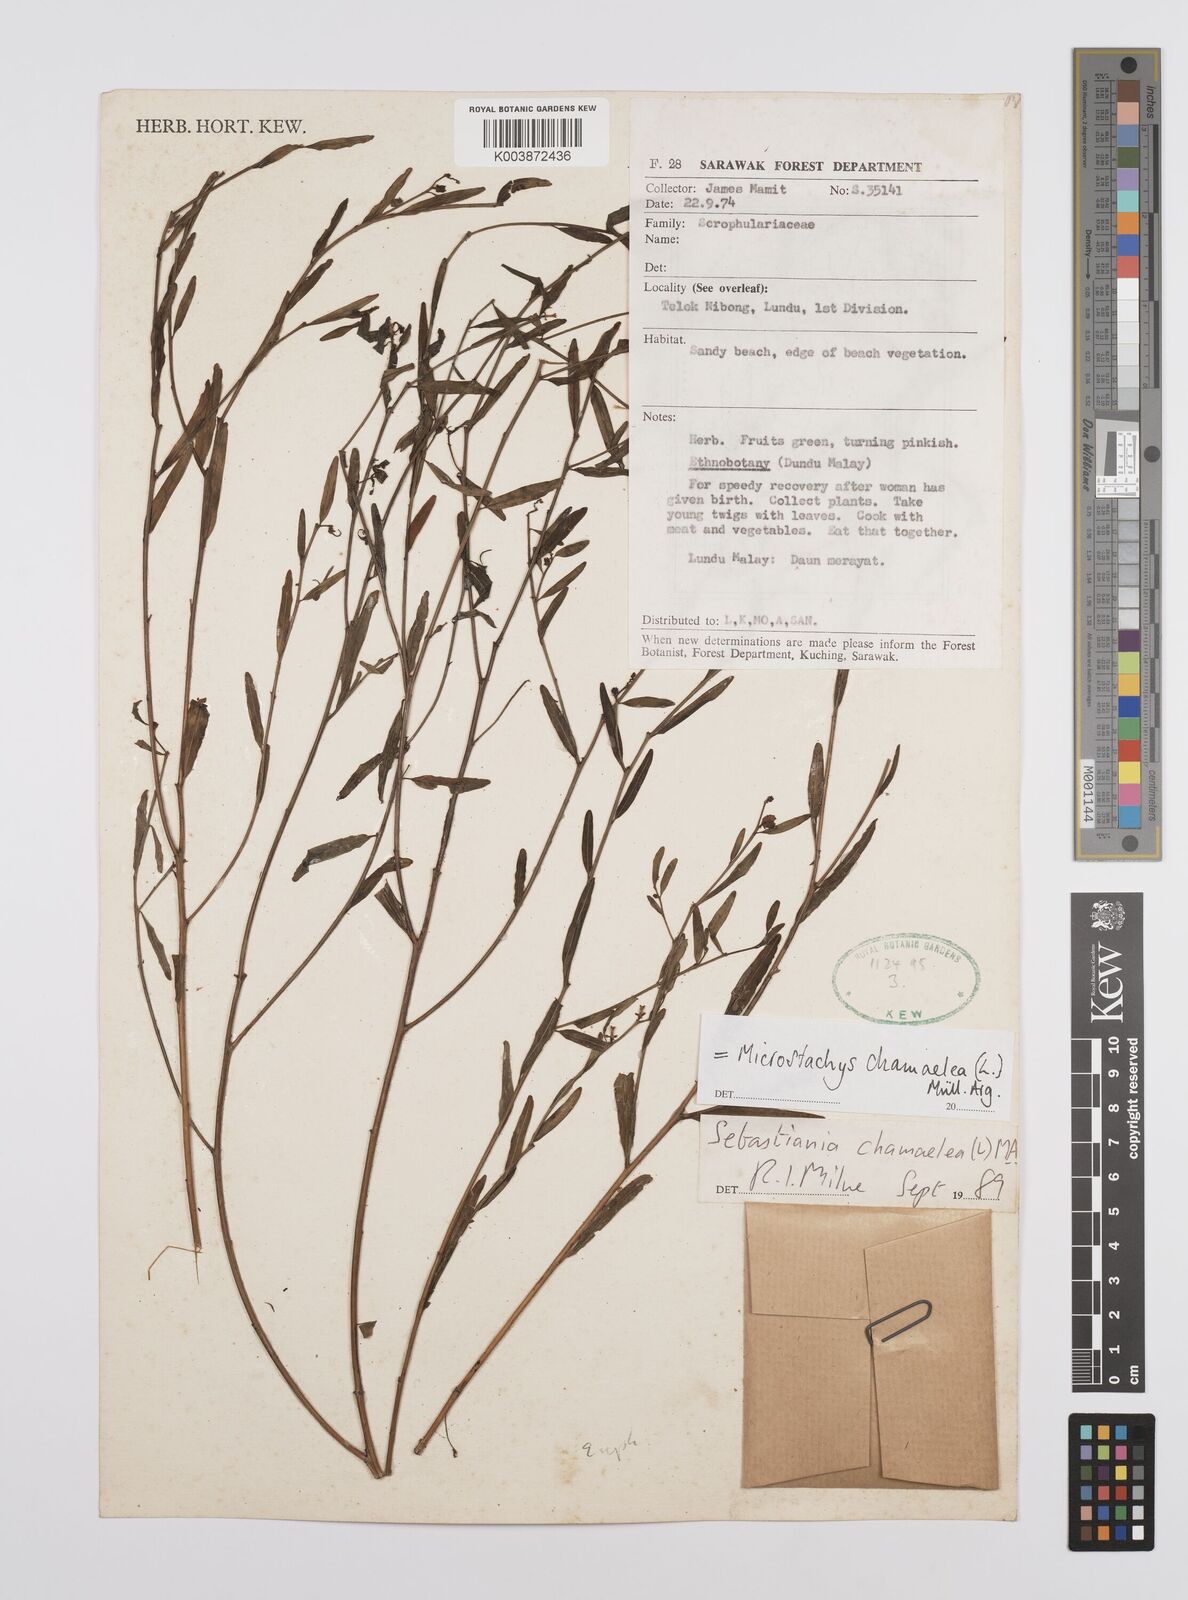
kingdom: Plantae
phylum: Tracheophyta
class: Magnoliopsida
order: Malpighiales
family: Euphorbiaceae
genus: Microstachys
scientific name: Microstachys chamaelea
